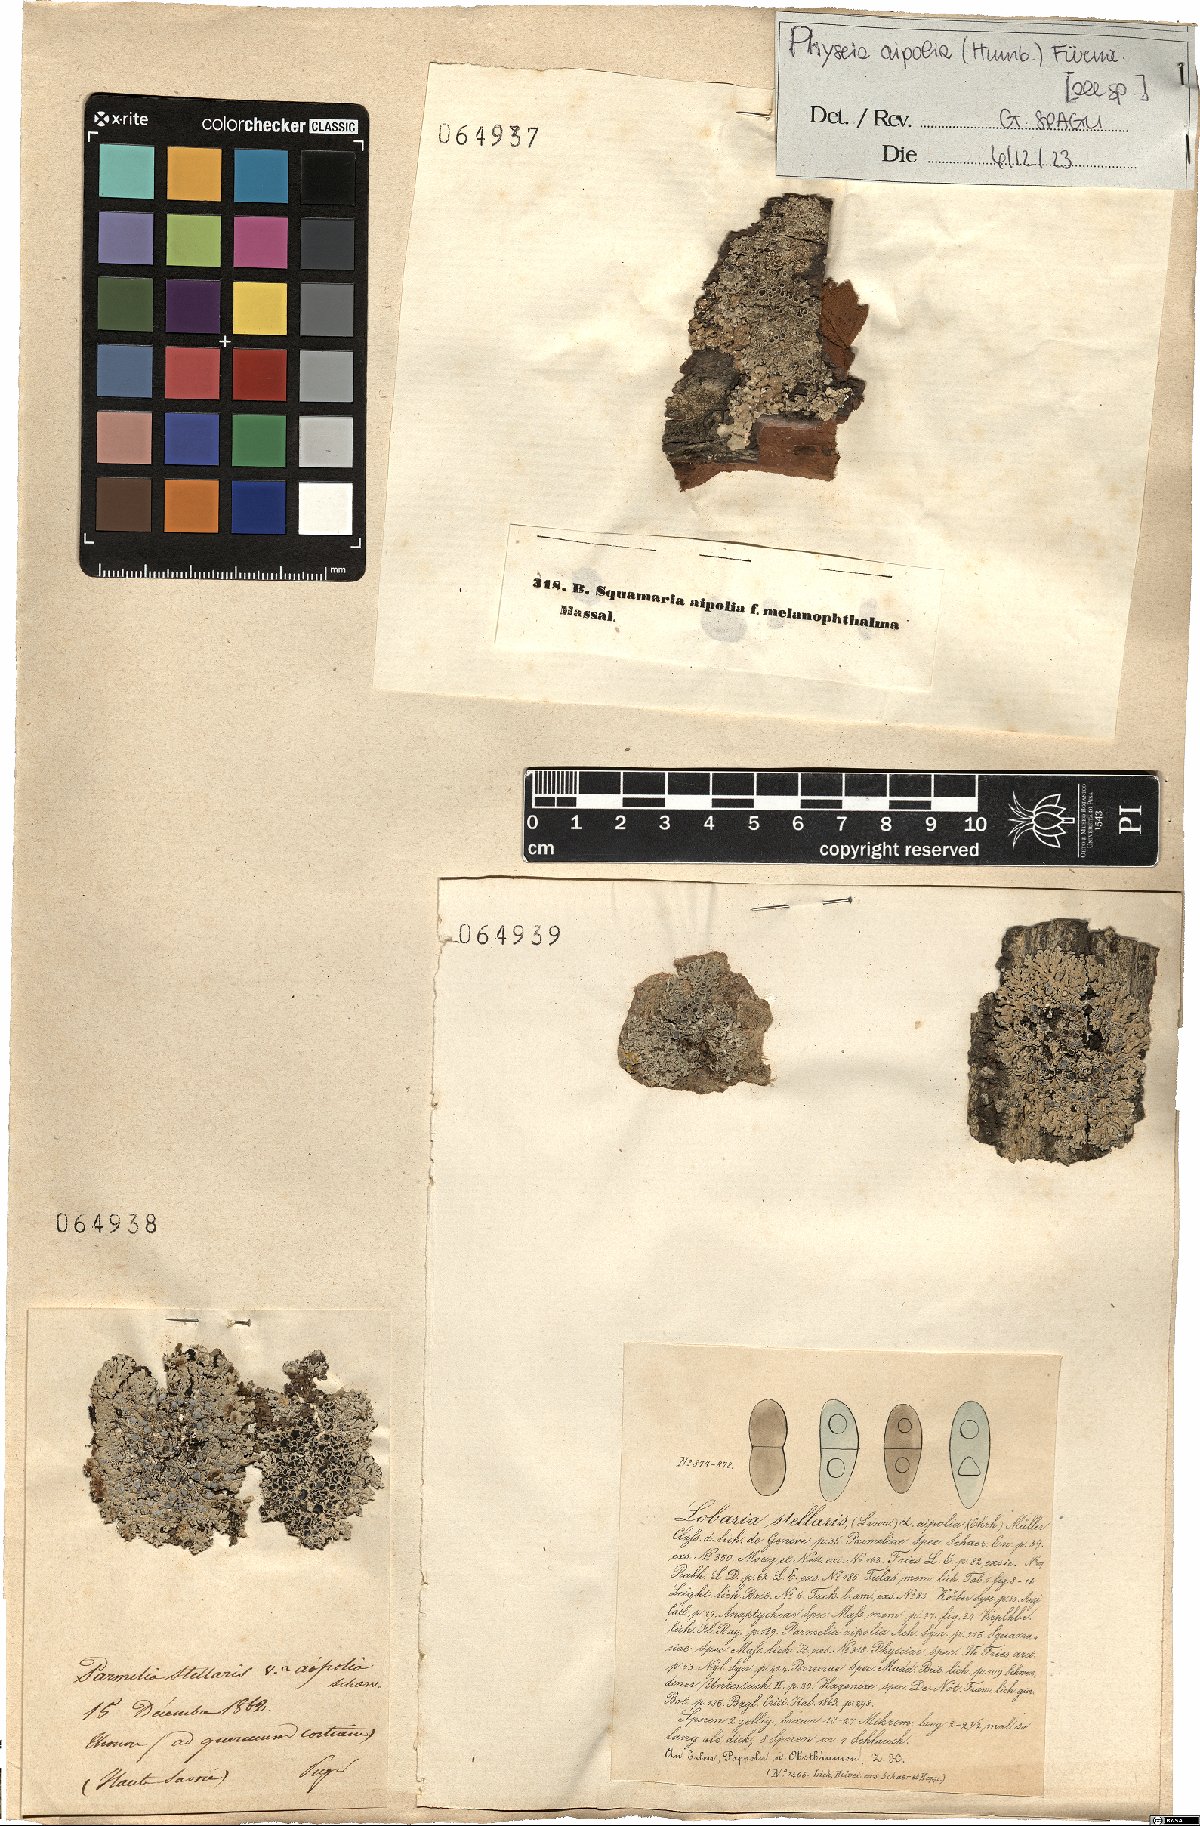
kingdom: Fungi
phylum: Ascomycota
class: Lecanoromycetes
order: Caliciales
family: Physciaceae
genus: Physcia
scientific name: Physcia aipolia
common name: Hoary rosette lichen
